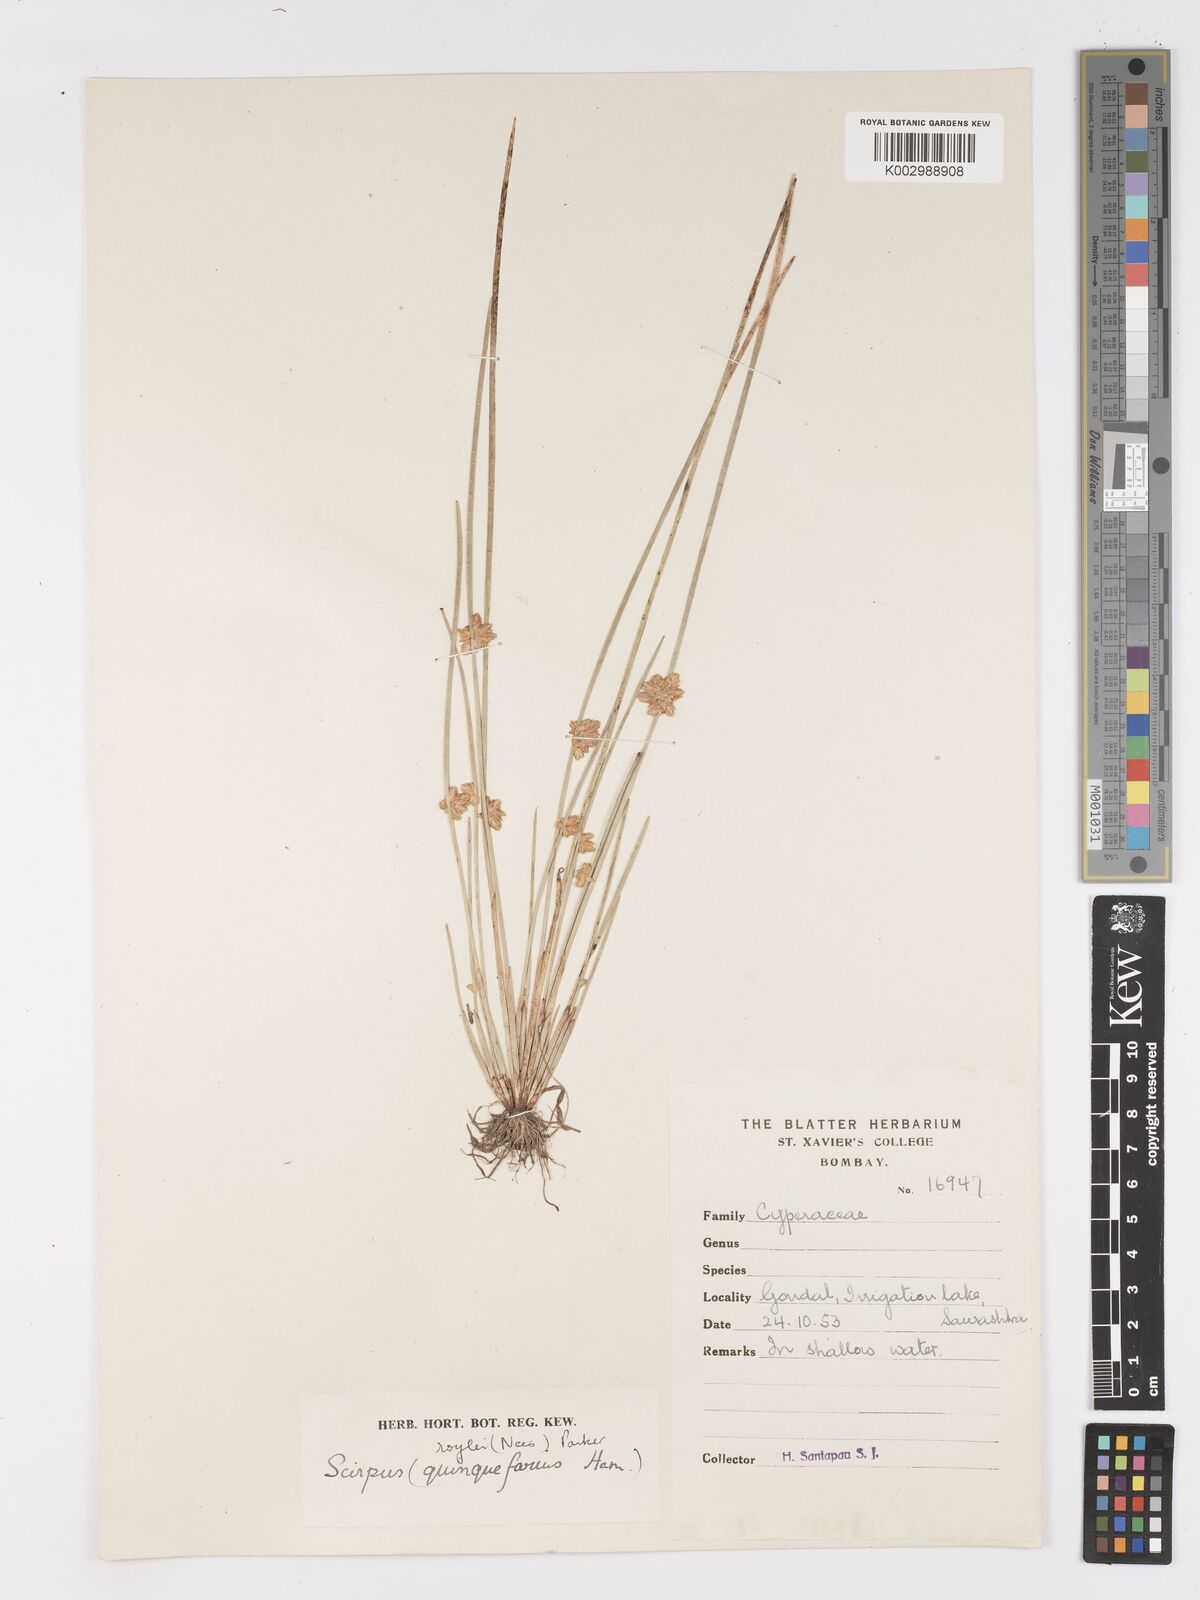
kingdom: Plantae
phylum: Tracheophyta
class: Liliopsida
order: Poales
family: Cyperaceae
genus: Schoenoplectiella
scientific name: Schoenoplectiella roylei
